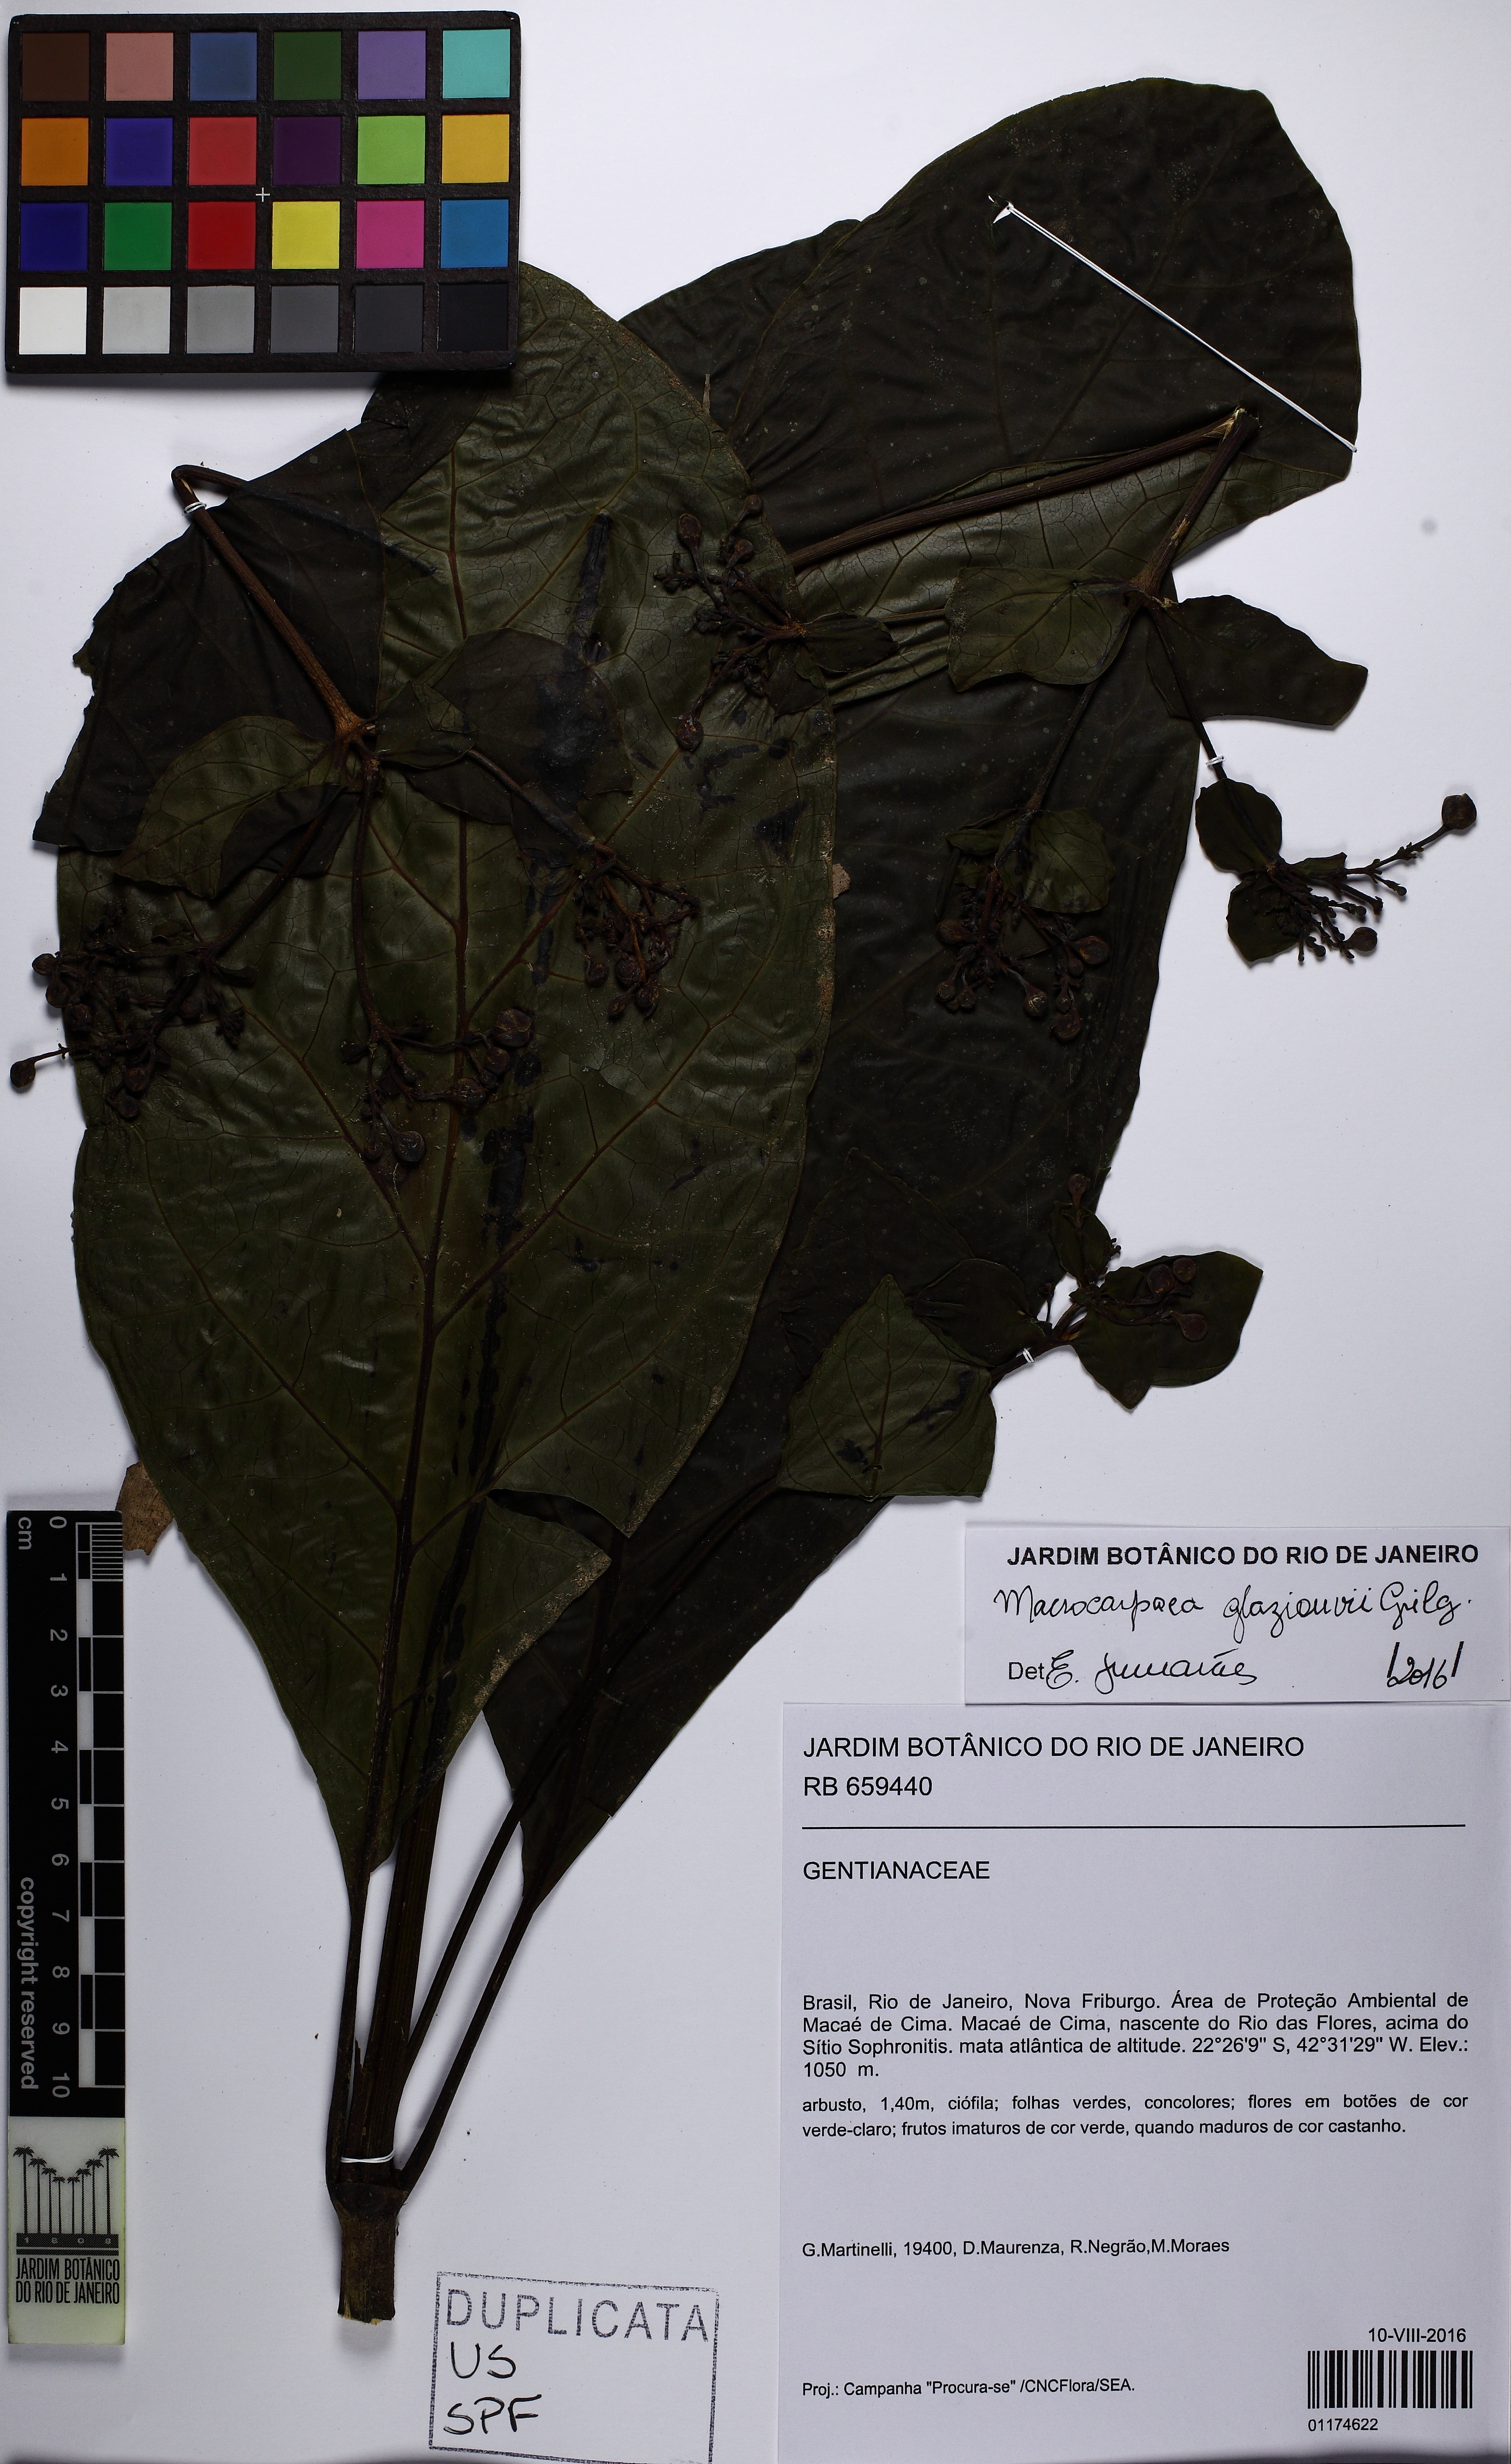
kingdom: Plantae
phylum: Tracheophyta
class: Magnoliopsida
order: Gentianales
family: Gentianaceae
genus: Macrocarpaea
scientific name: Macrocarpaea glaziovii
